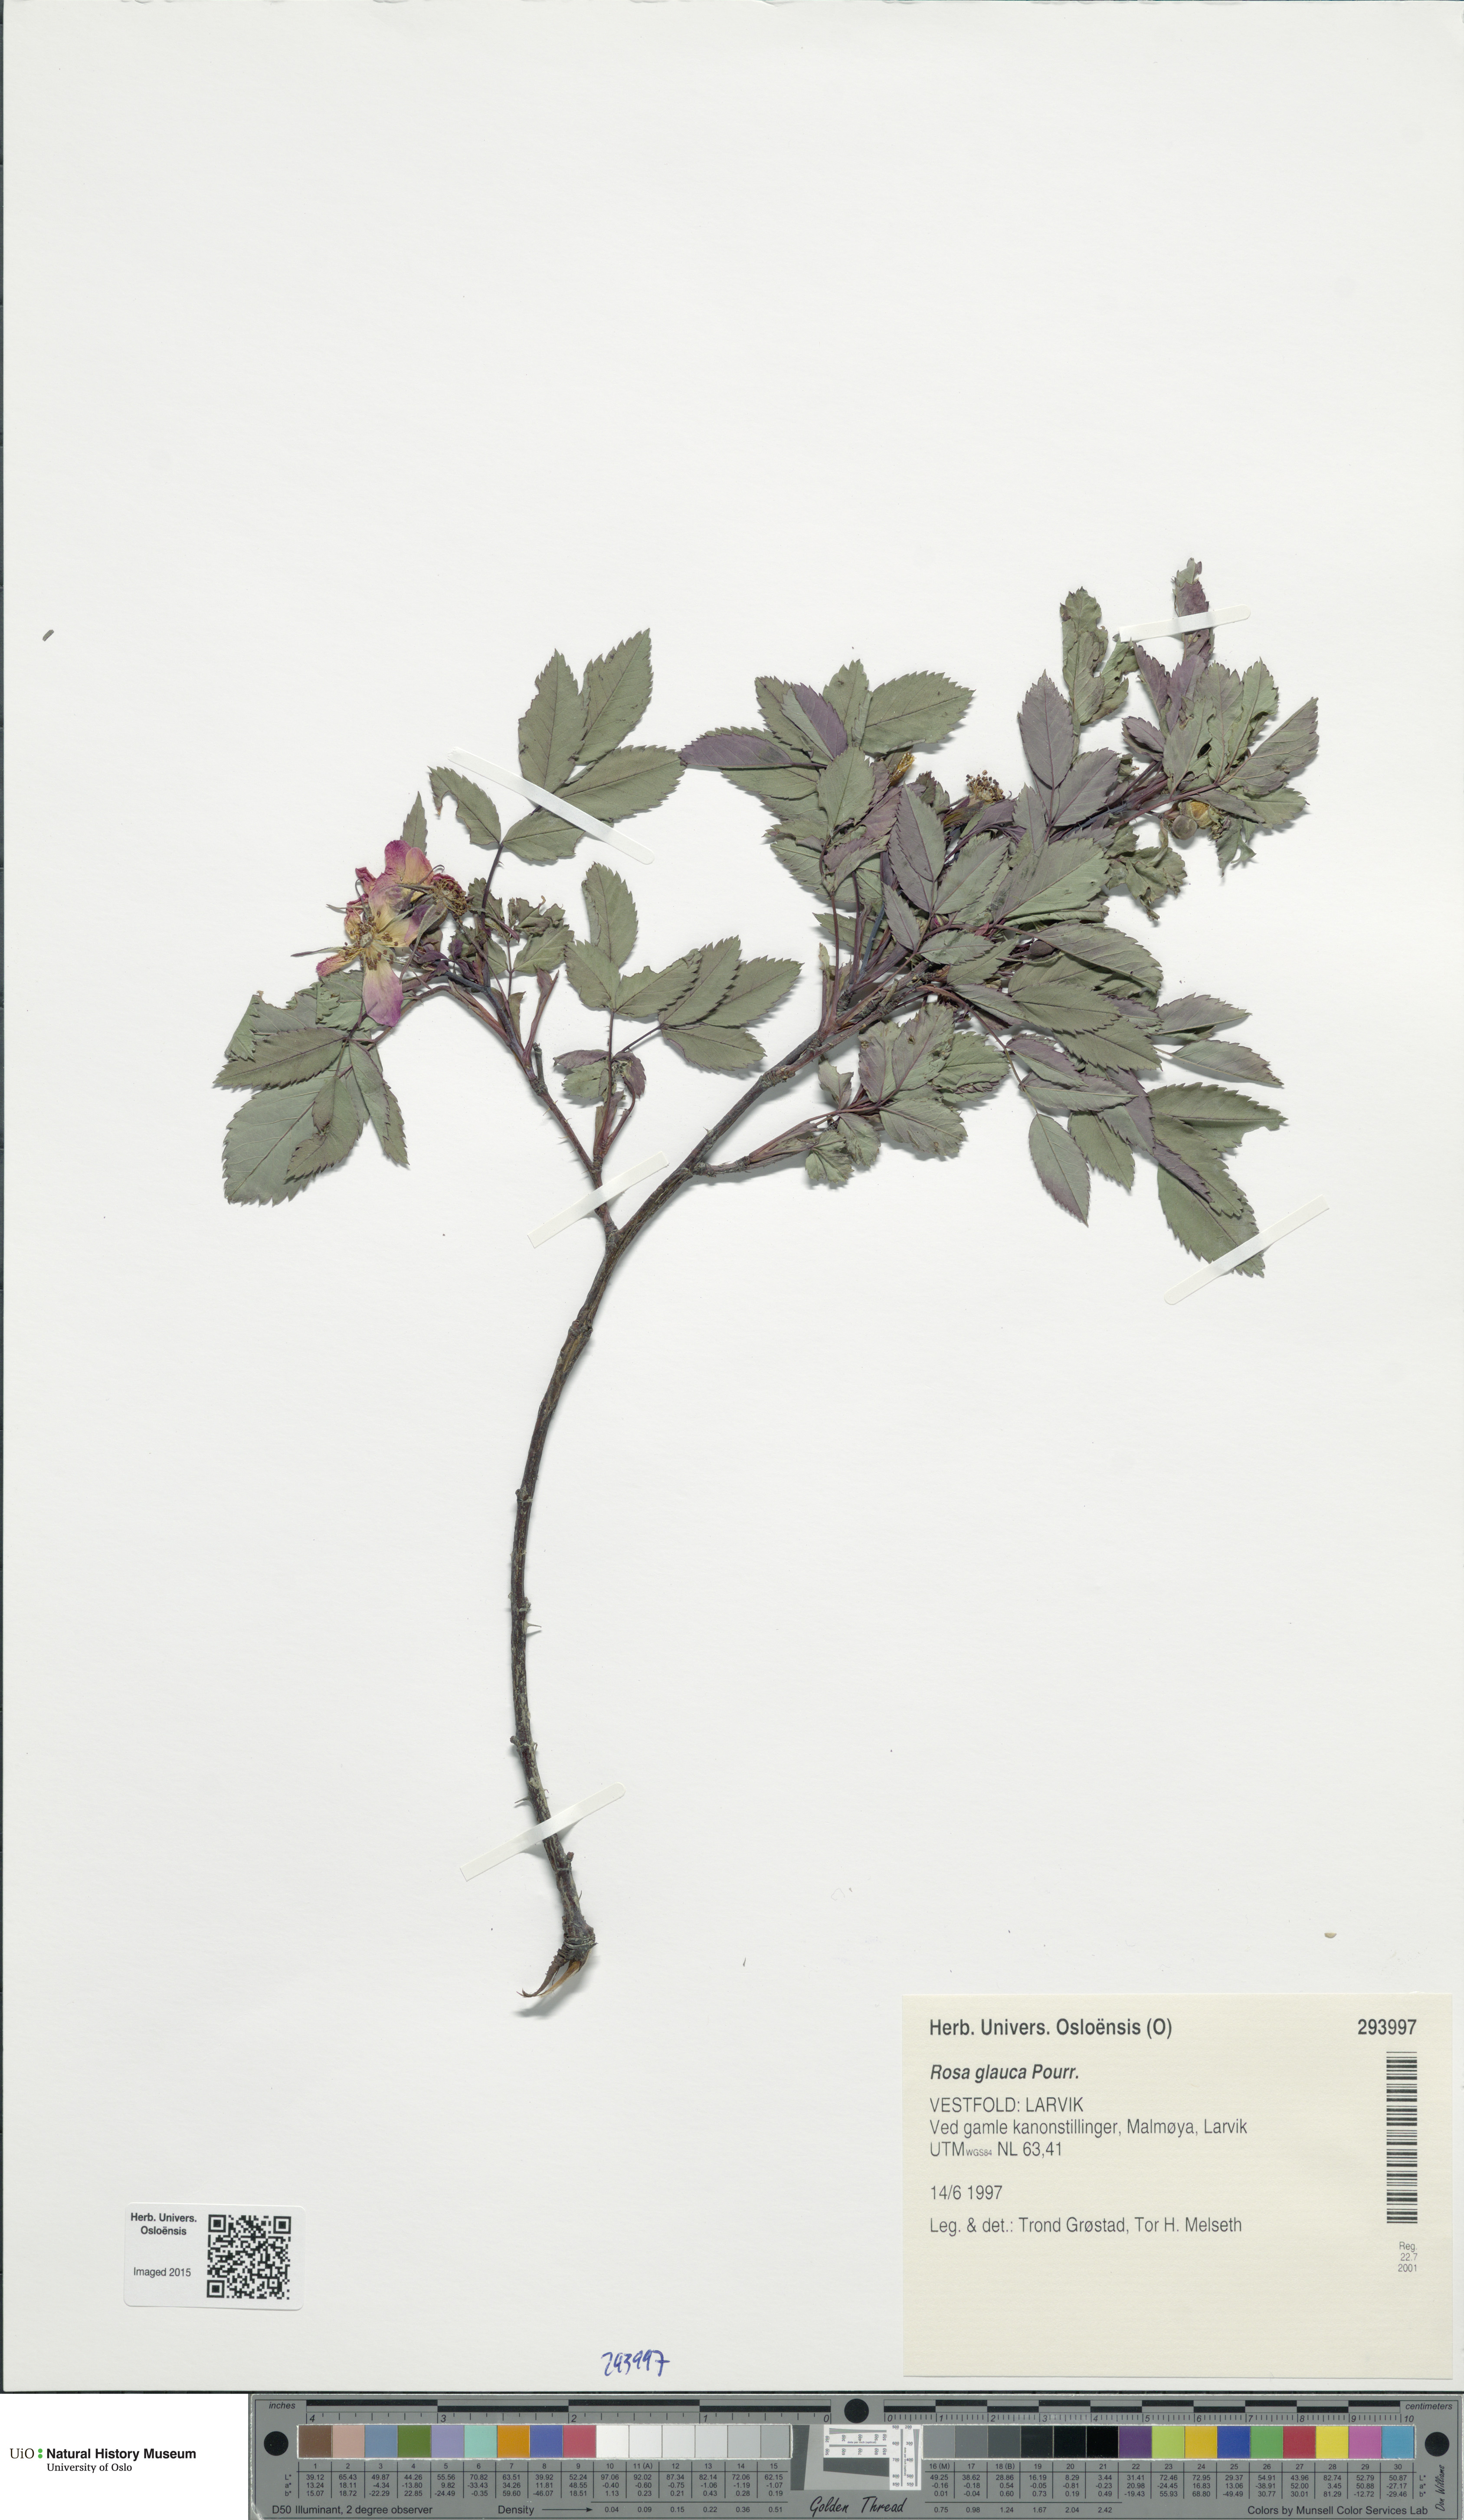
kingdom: Plantae
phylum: Tracheophyta
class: Magnoliopsida
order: Rosales
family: Rosaceae
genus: Rosa
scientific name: Rosa glauca
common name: Redleaf rose
